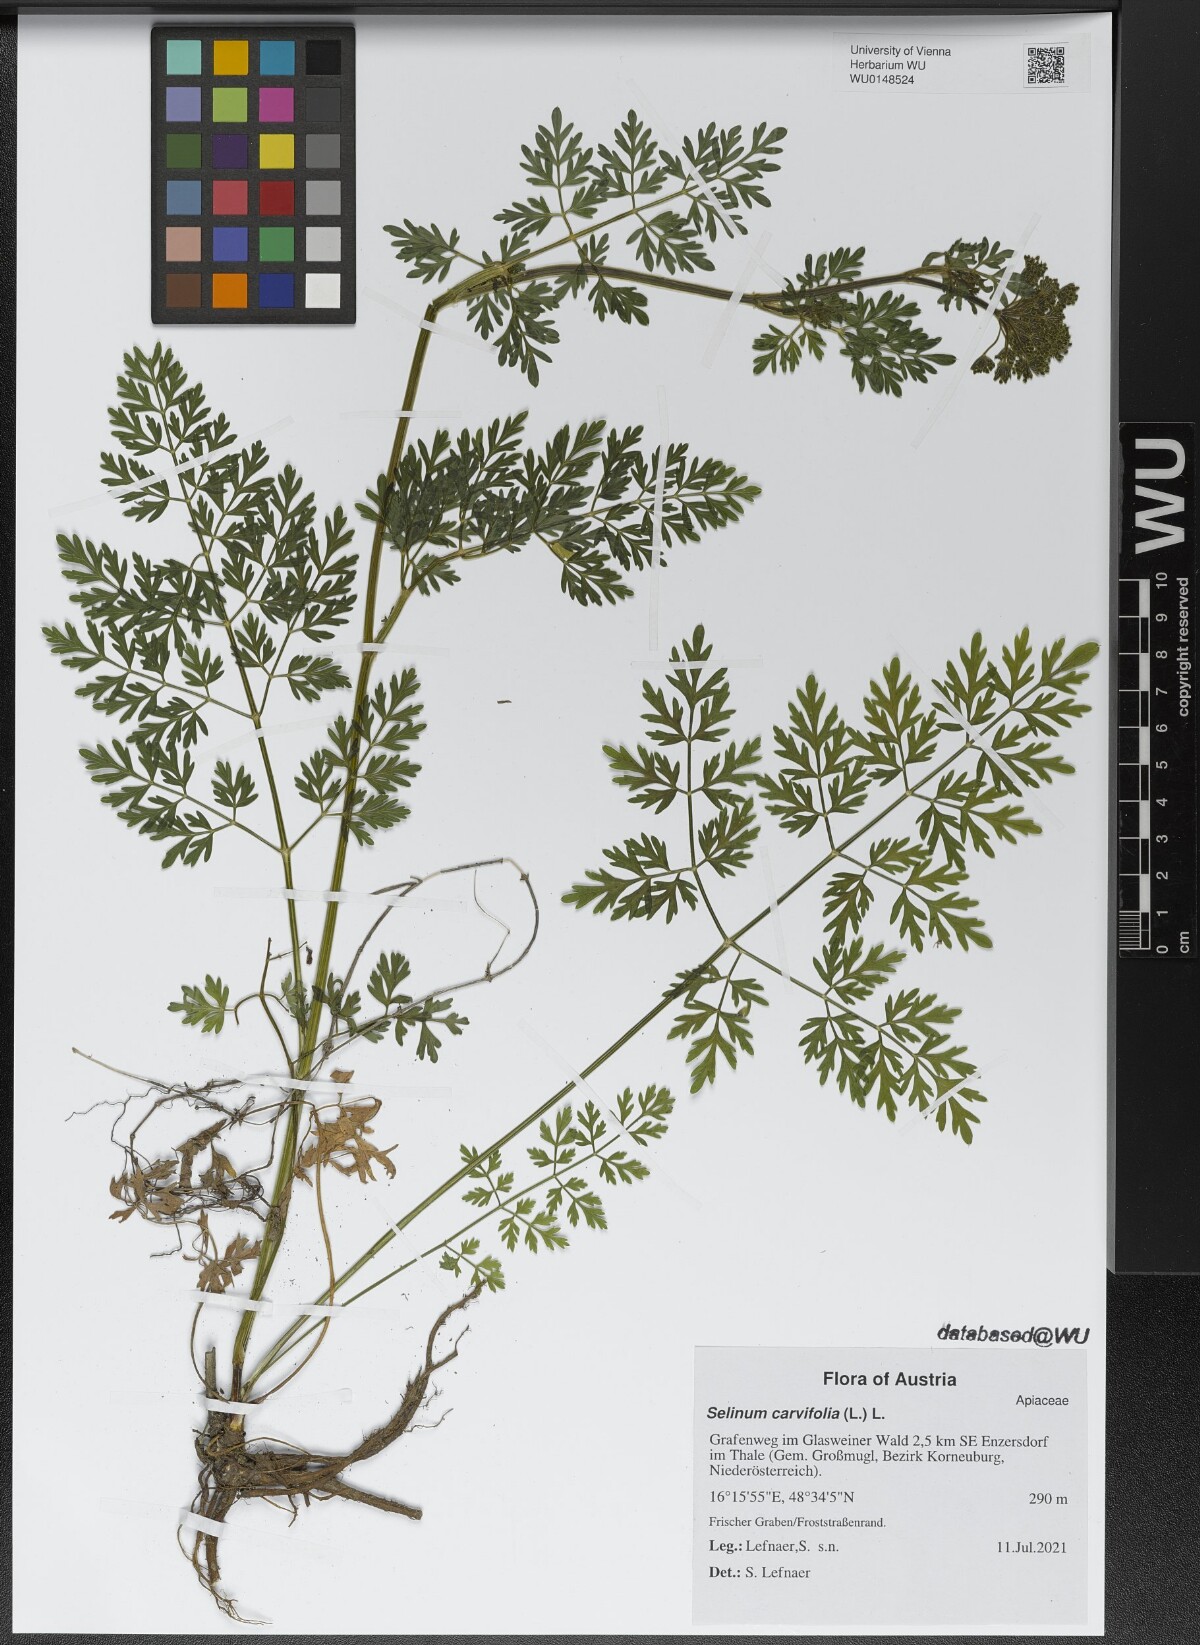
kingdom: Plantae
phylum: Tracheophyta
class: Magnoliopsida
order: Apiales
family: Apiaceae
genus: Selinum
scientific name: Selinum carvifolia
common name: Cambridge milk-parsley
